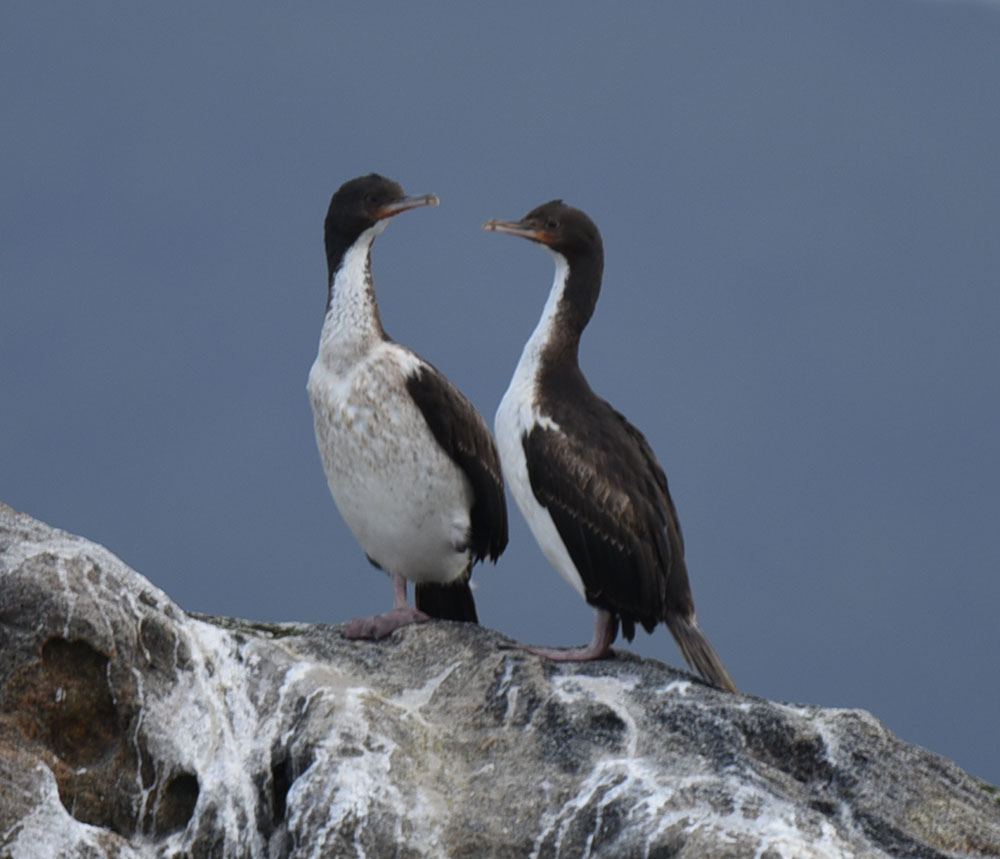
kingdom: Animalia
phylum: Chordata
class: Aves
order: Suliformes
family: Phalacrocoracidae
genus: Leucocarbo
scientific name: Leucocarbo chalconotus
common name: Stewart shag
